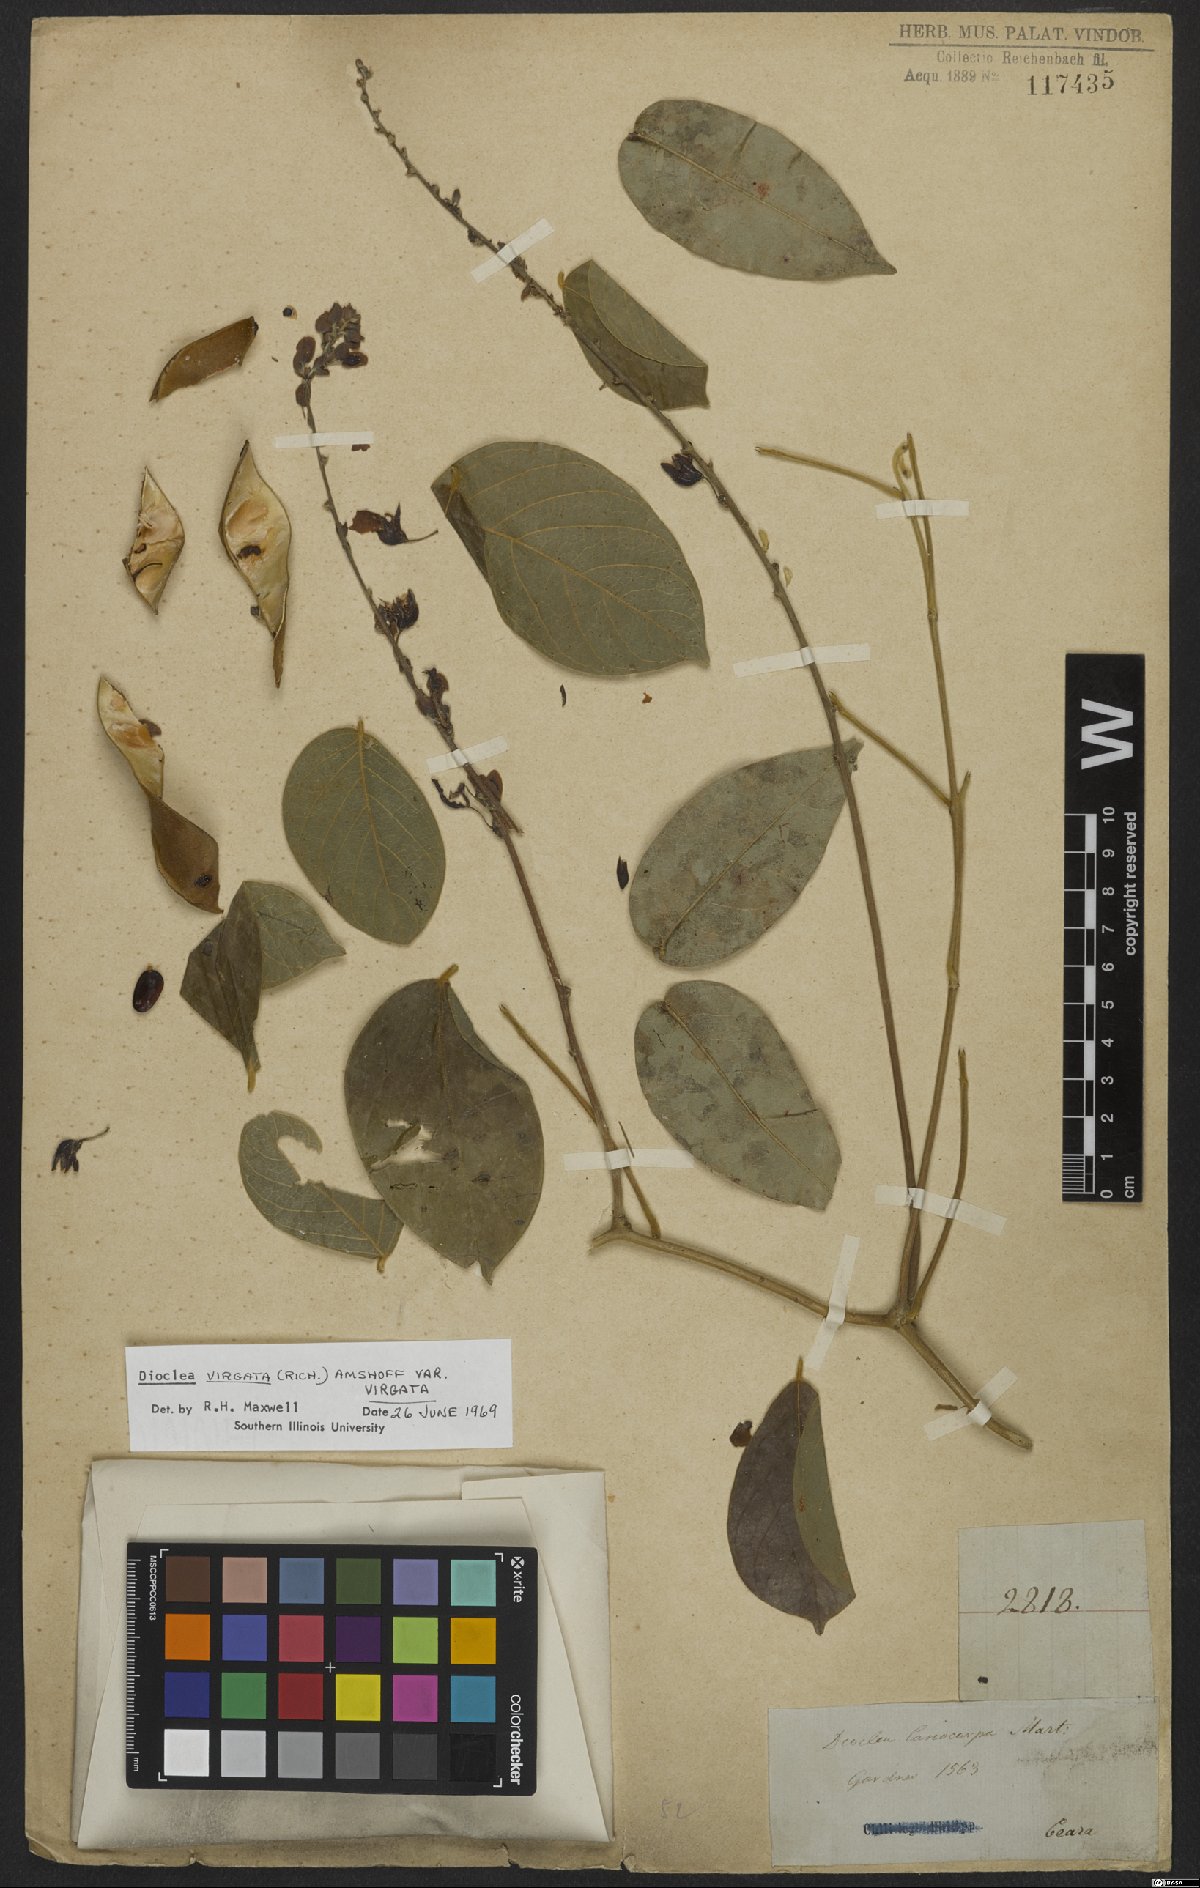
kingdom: Plantae
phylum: Tracheophyta
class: Magnoliopsida
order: Fabales
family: Fabaceae
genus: Dioclea
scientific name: Dioclea virgata
